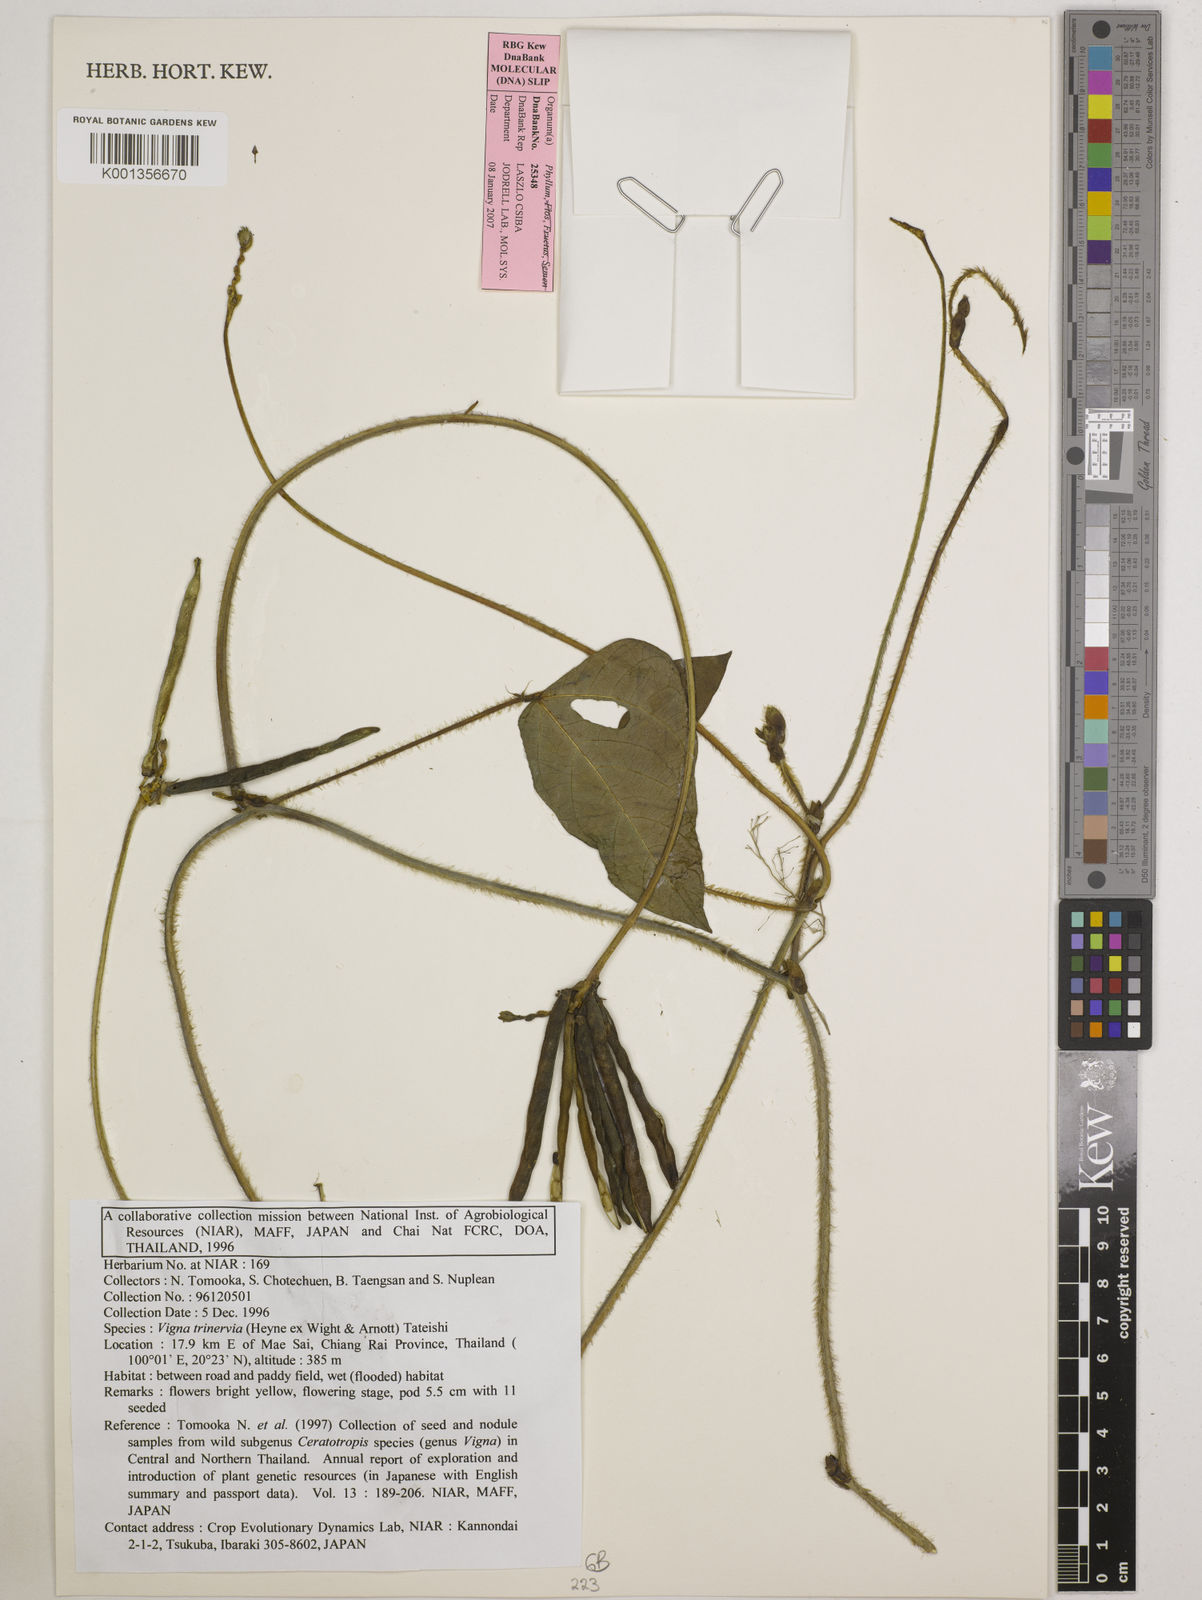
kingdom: Plantae
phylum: Tracheophyta
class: Magnoliopsida
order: Fabales
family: Fabaceae
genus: Vigna
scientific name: Vigna radiata
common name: Mung-bean
